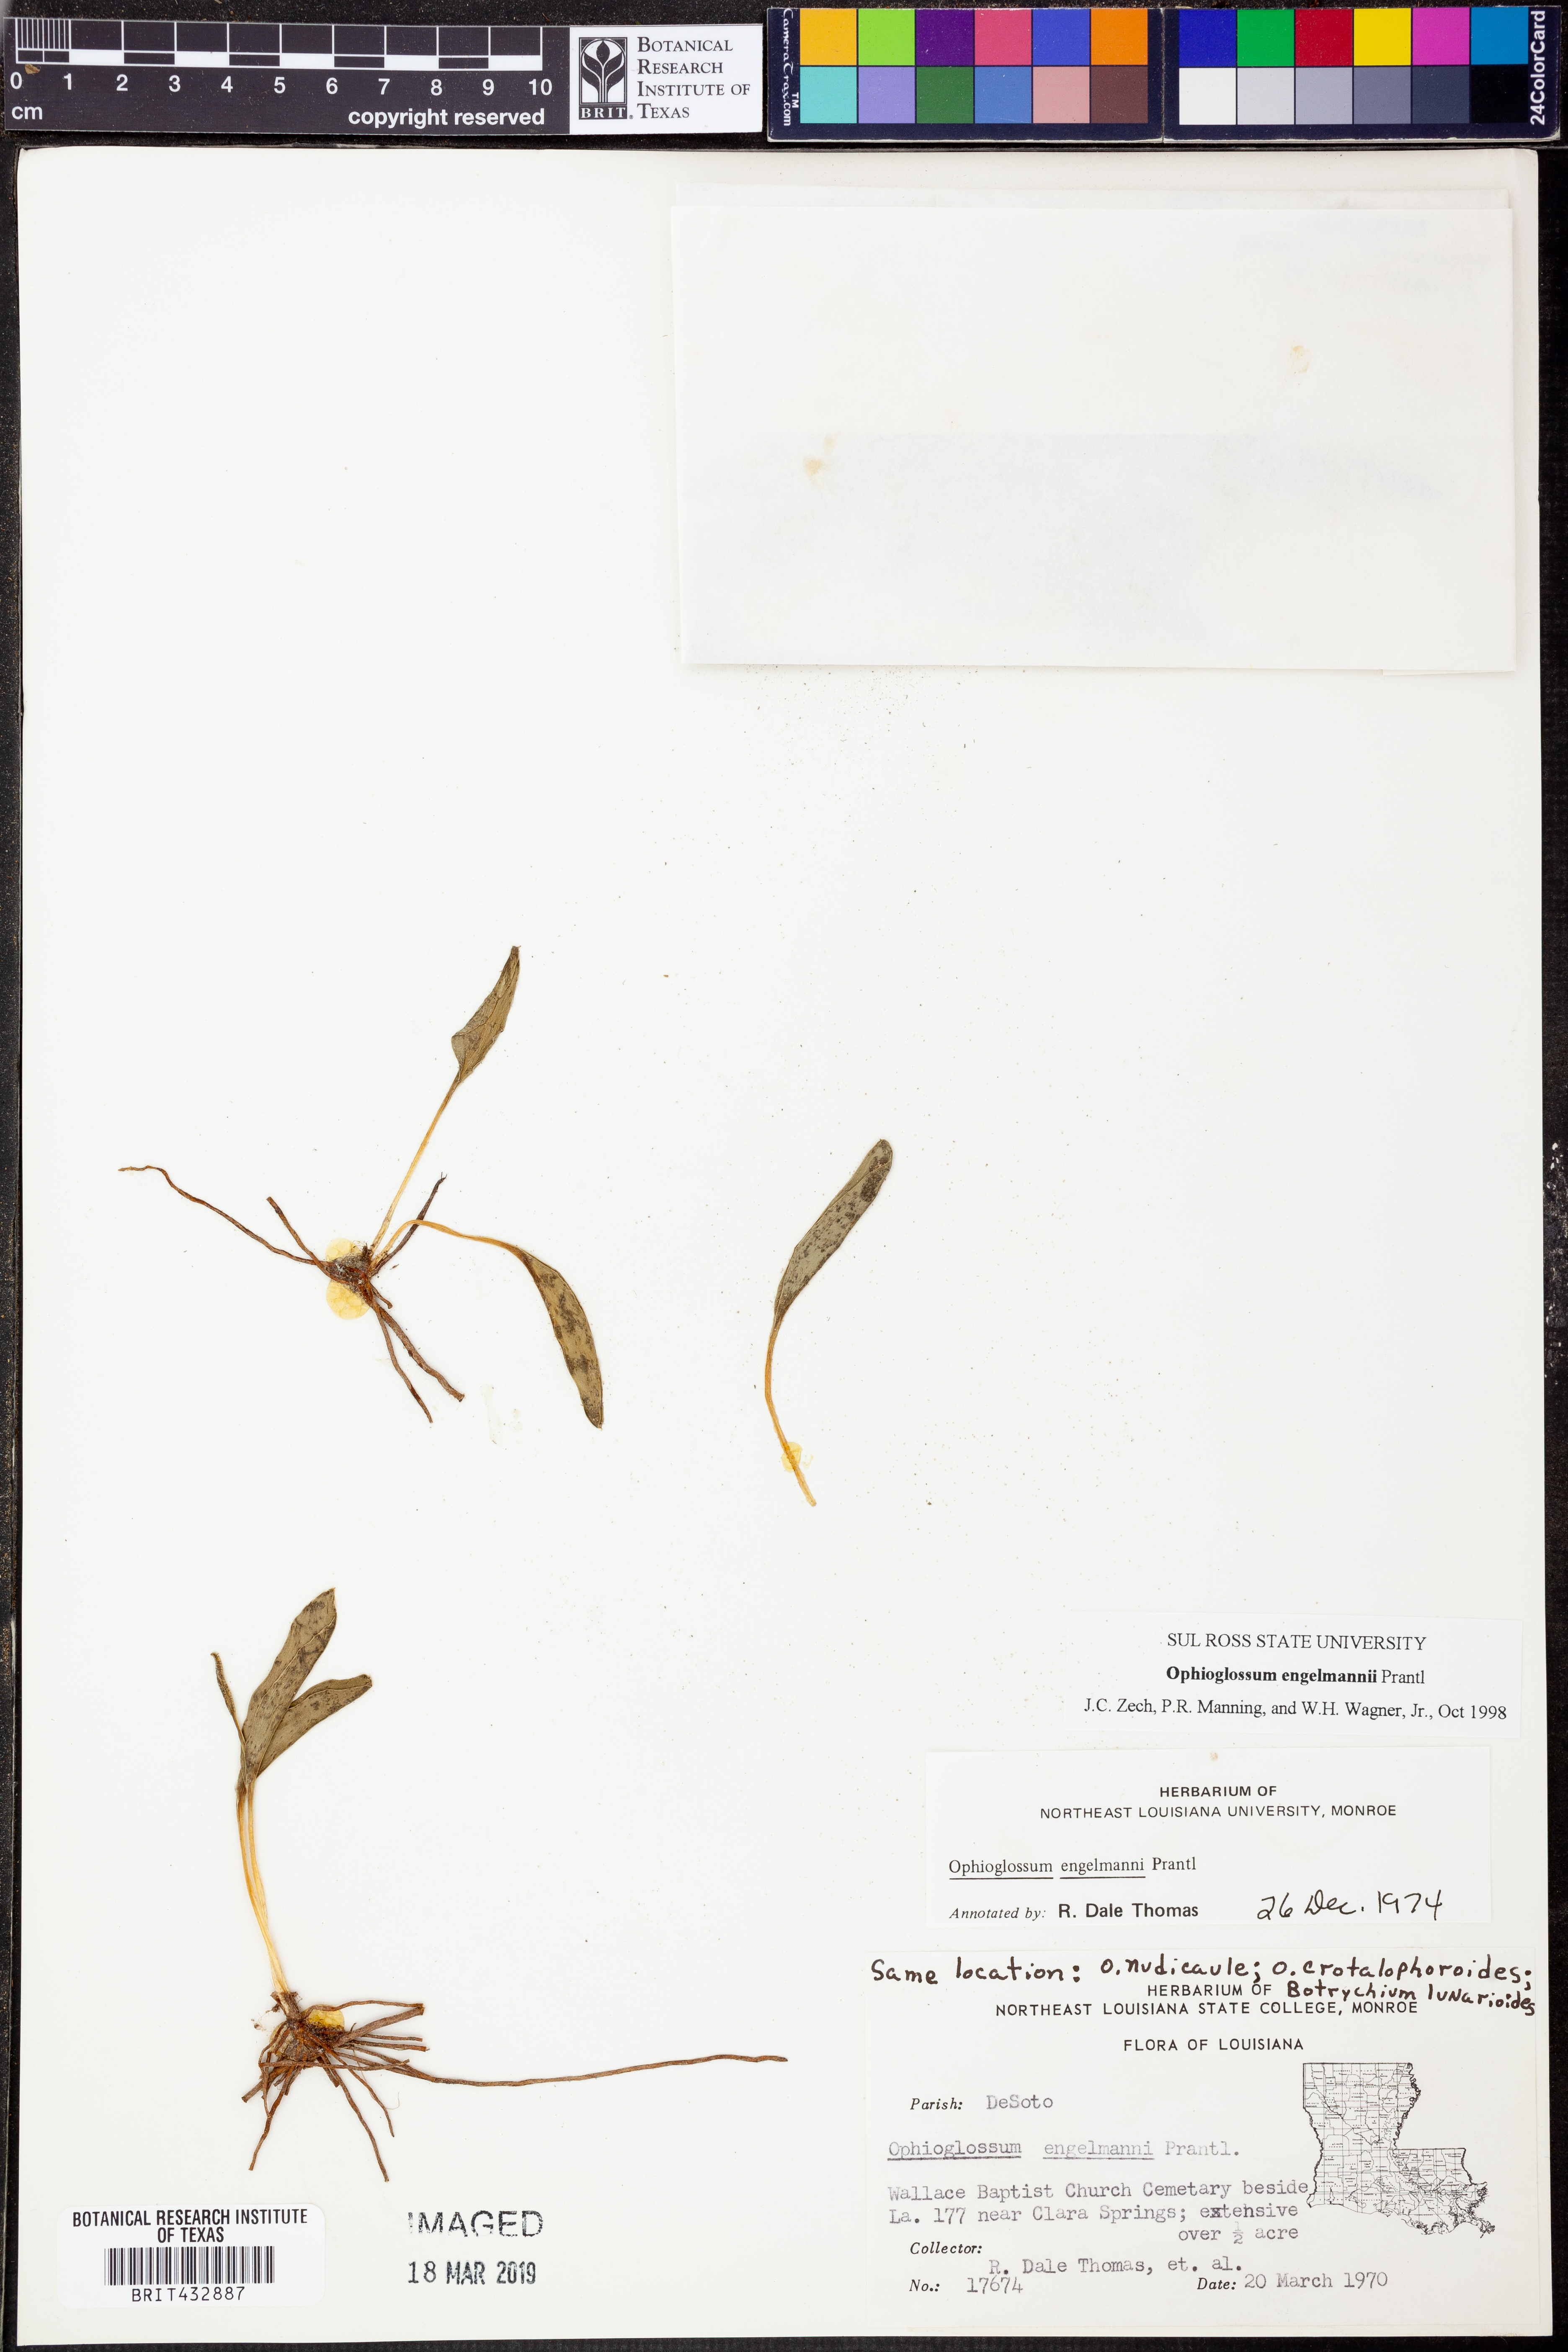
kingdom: Plantae
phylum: Tracheophyta
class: Polypodiopsida
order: Ophioglossales
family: Ophioglossaceae
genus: Ophioglossum
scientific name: Ophioglossum engelmannii
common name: Limestone adder's-tongue
